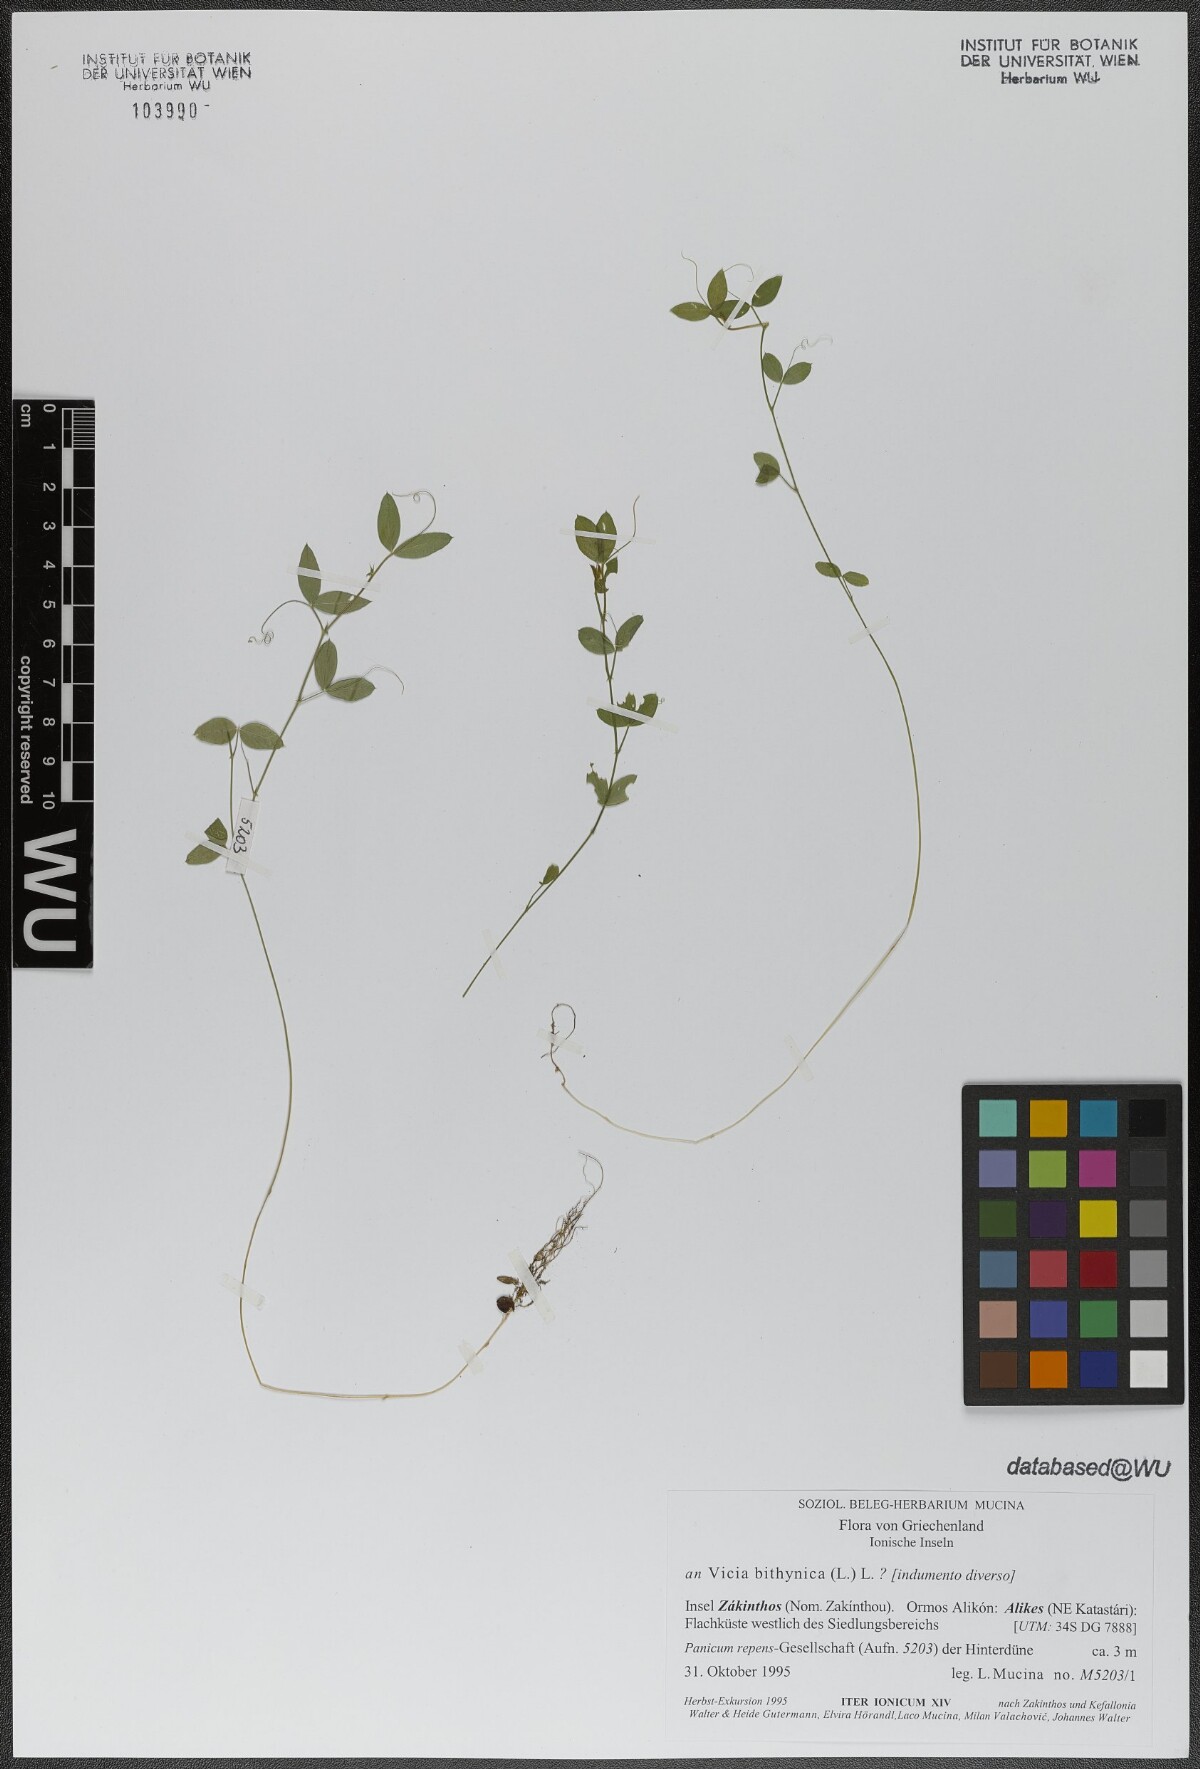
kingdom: Plantae
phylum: Tracheophyta
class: Magnoliopsida
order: Fabales
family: Fabaceae
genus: Vicia
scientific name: Vicia bithynica
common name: Bithynian vetch
